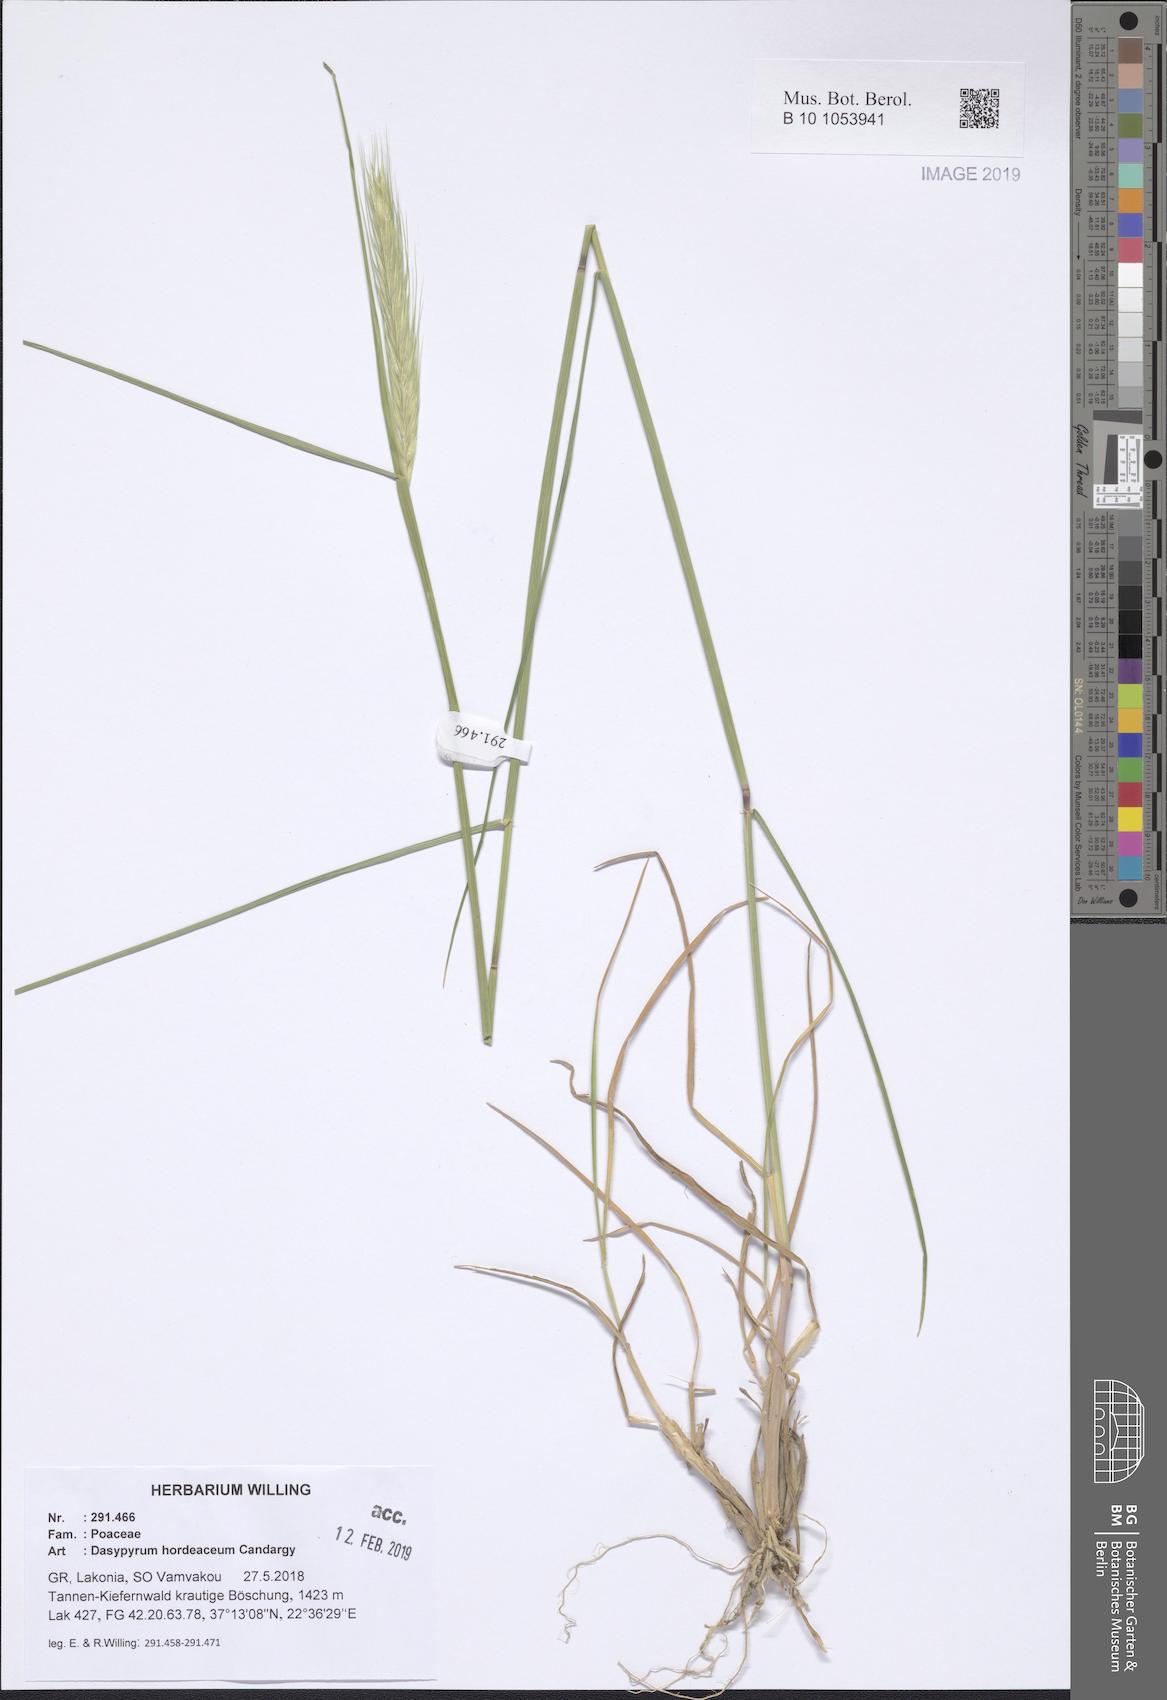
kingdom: Plantae
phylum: Tracheophyta
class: Liliopsida
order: Poales
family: Poaceae
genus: Dasypyrum
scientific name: Dasypyrum hordeaceum
